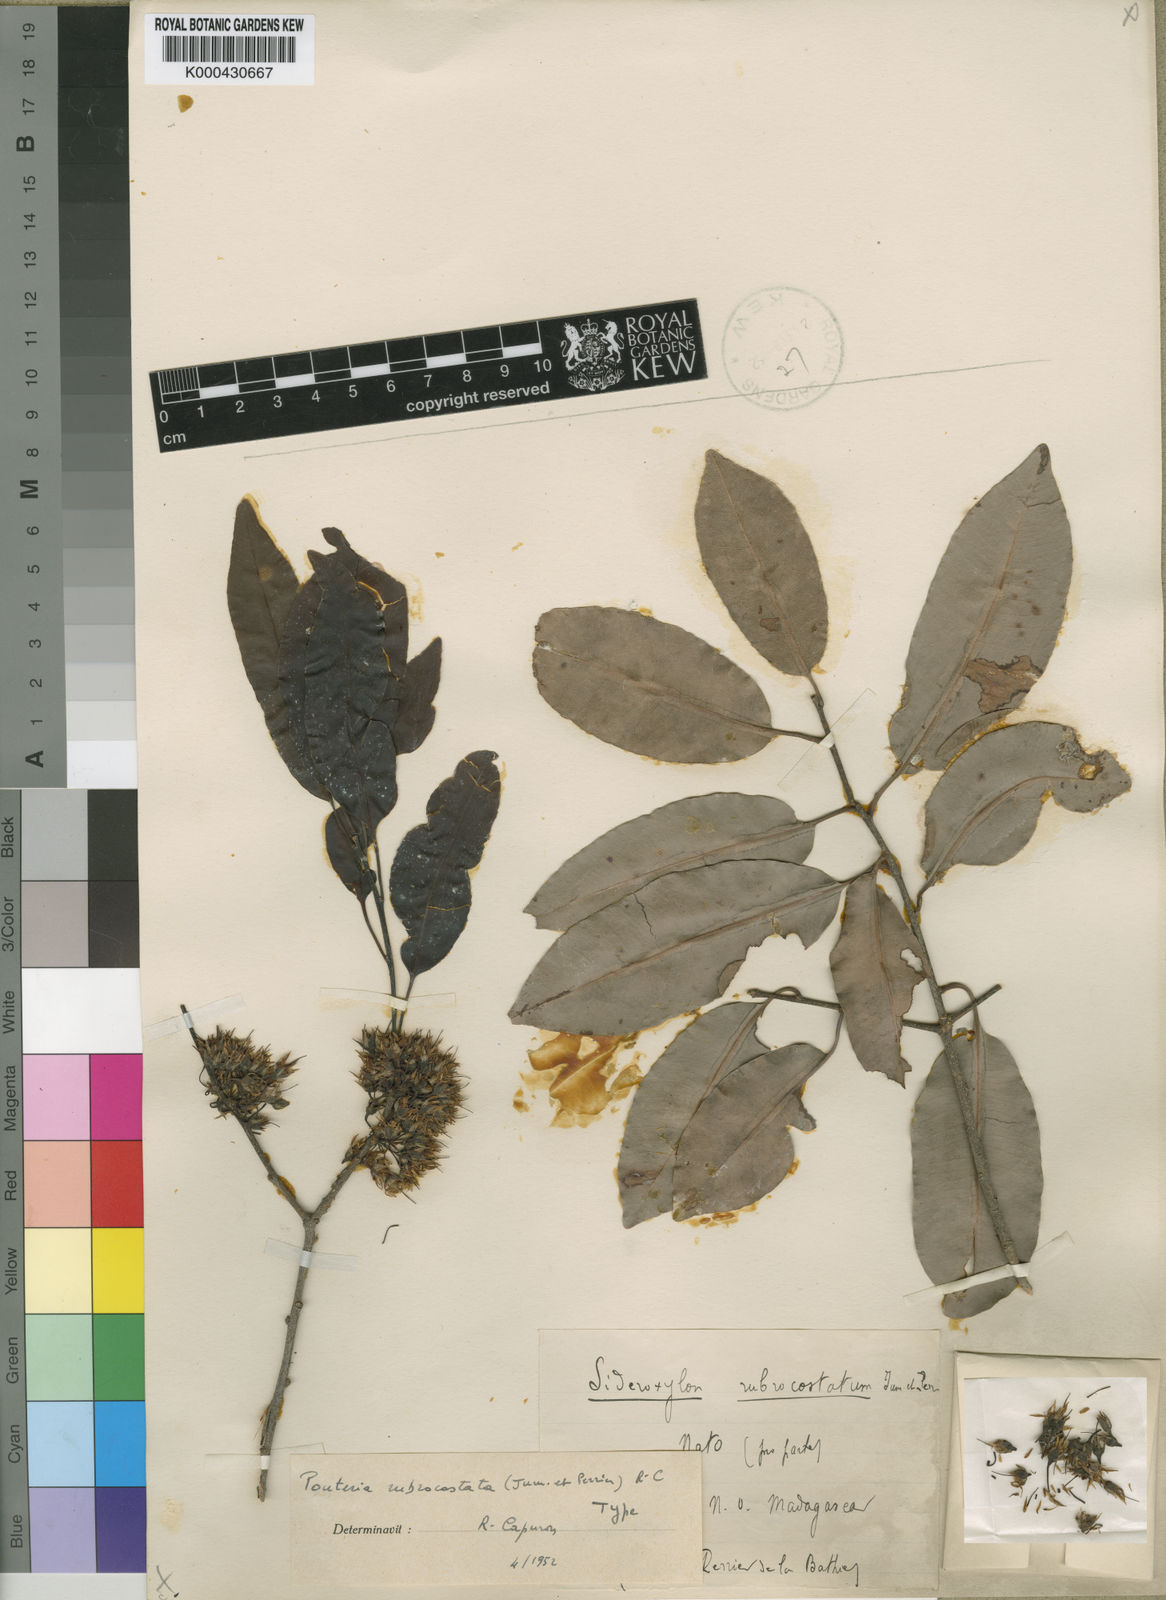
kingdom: Plantae
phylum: Tracheophyta
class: Magnoliopsida
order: Ericales
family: Sapotaceae
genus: Capurodendron
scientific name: Capurodendron
